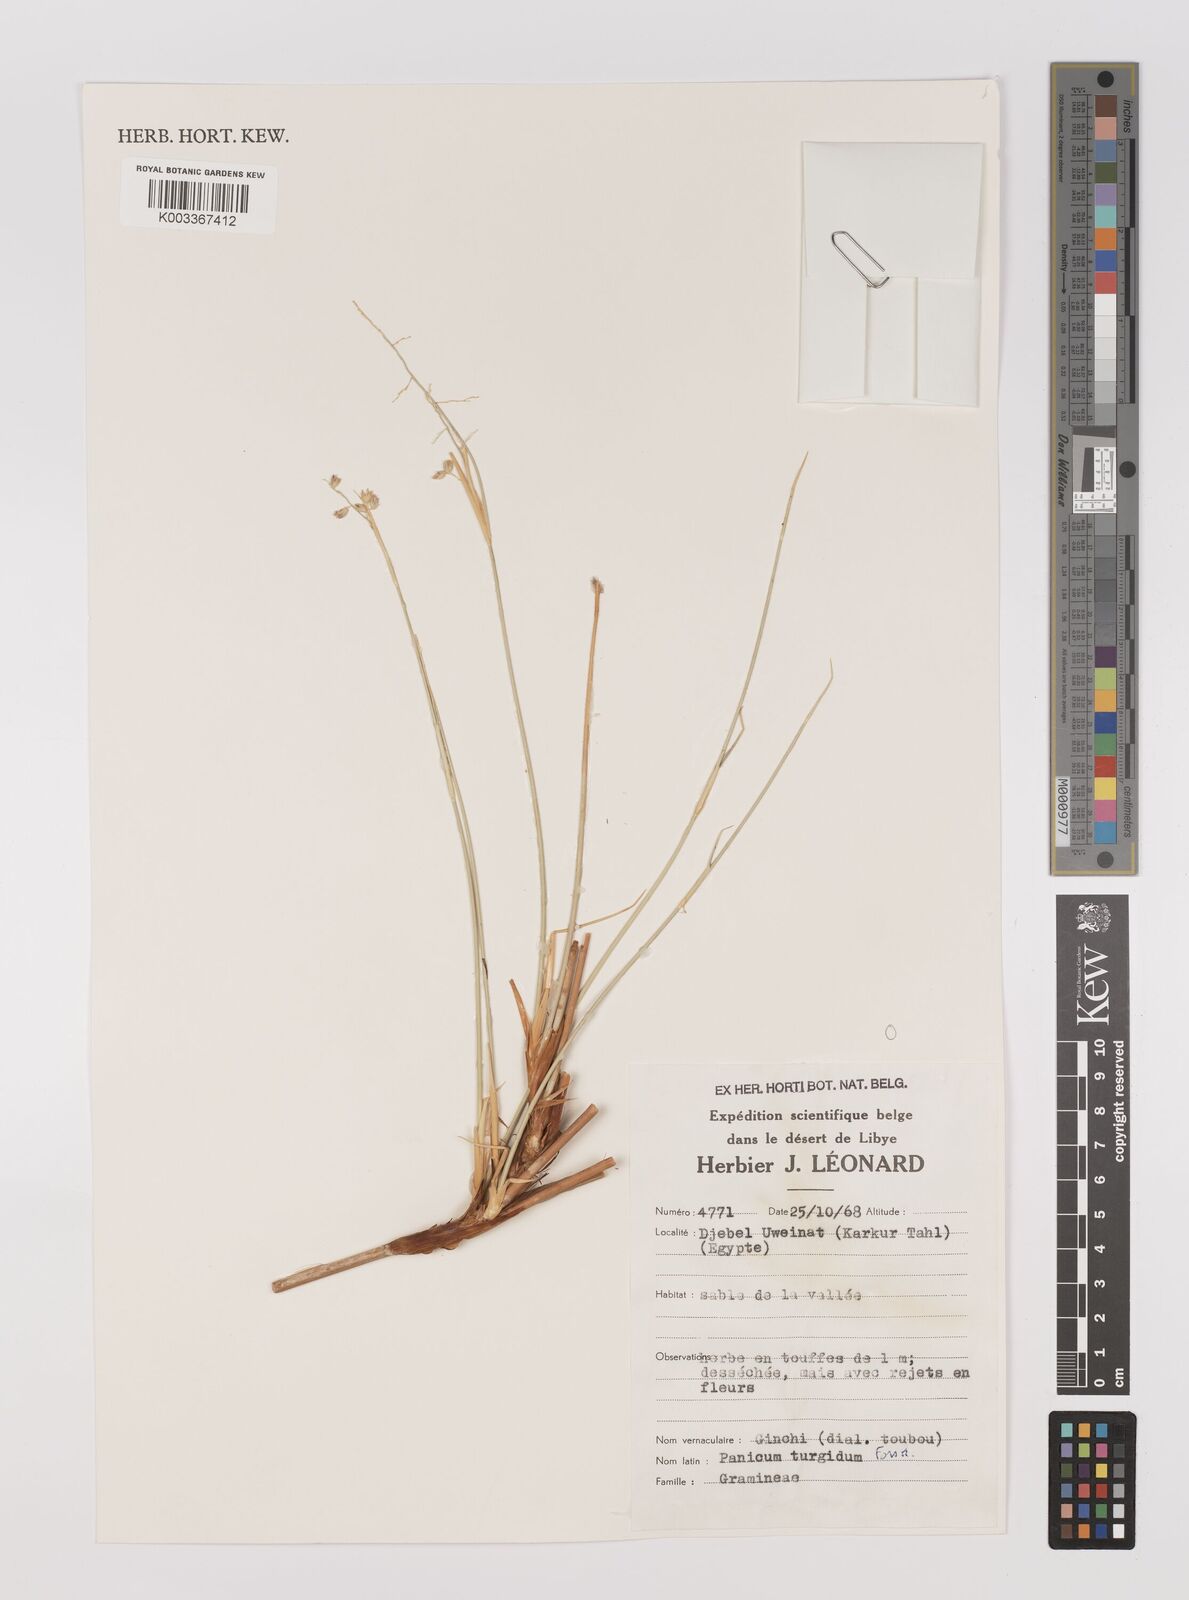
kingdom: Plantae
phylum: Tracheophyta
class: Liliopsida
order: Poales
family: Poaceae
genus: Panicum
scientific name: Panicum turgidum
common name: Desert grass
